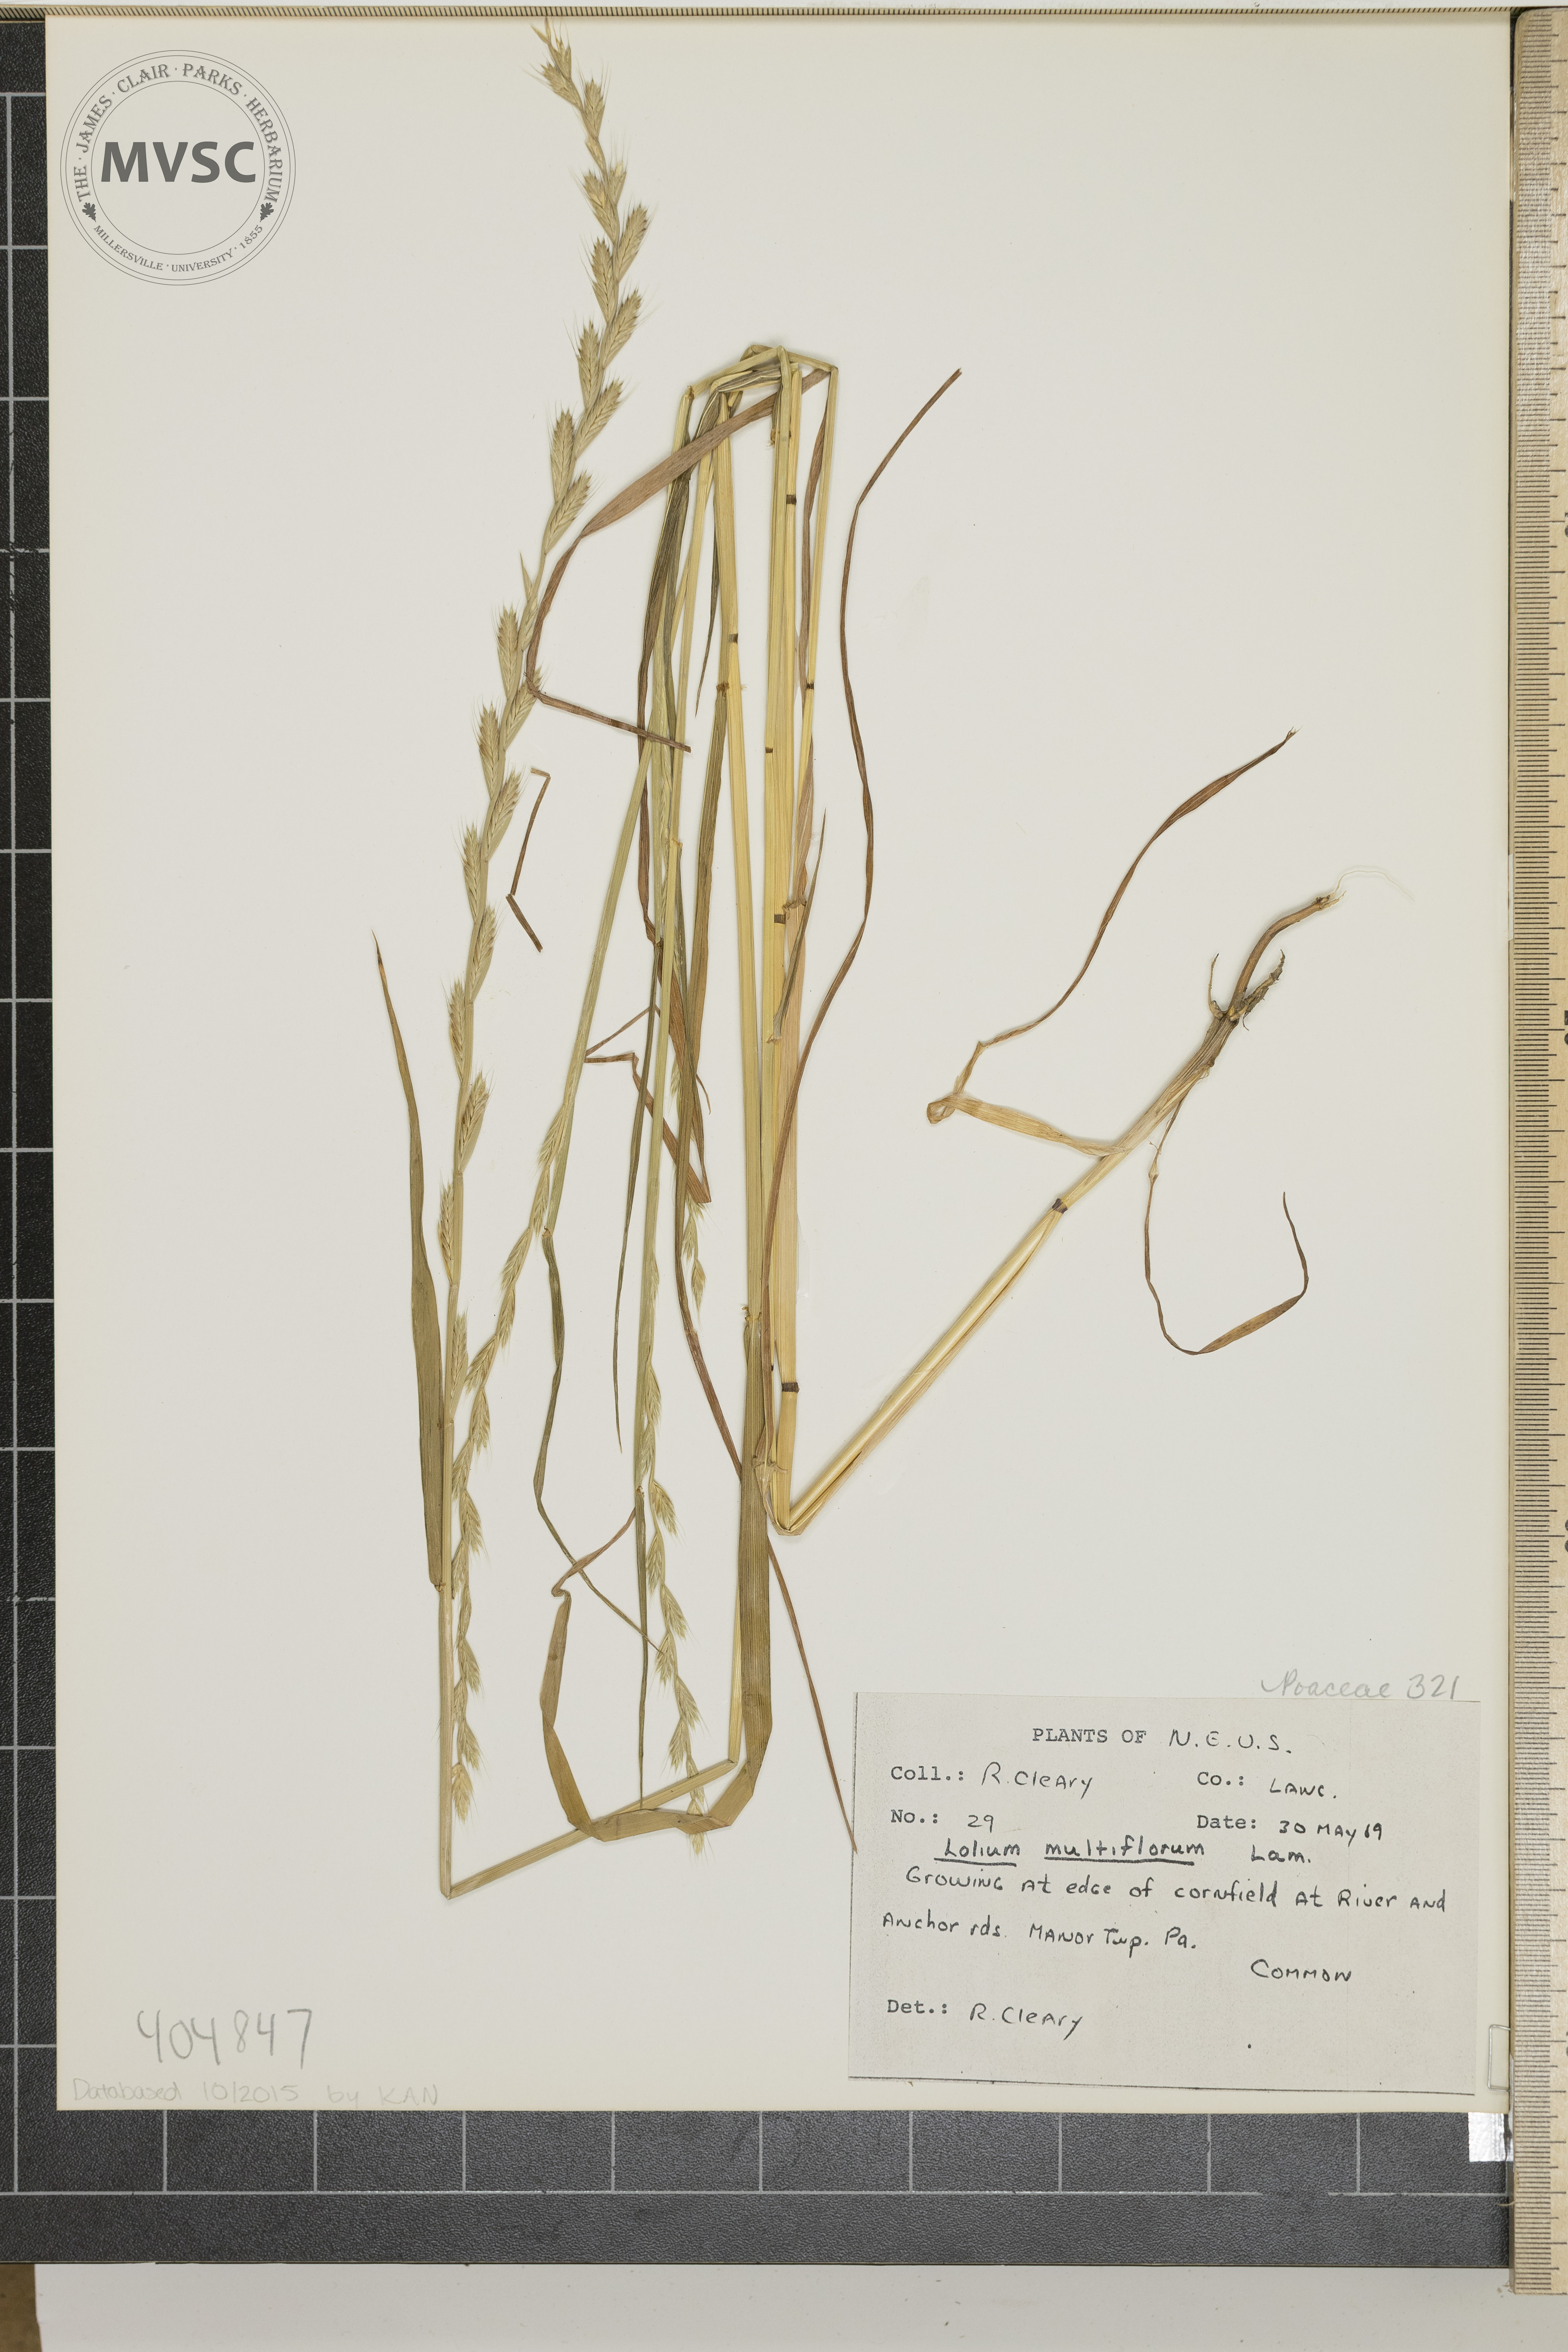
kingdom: Plantae
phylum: Tracheophyta
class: Liliopsida
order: Poales
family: Poaceae
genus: Lolium
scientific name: Lolium multiflorum
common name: Annual ryegrass
